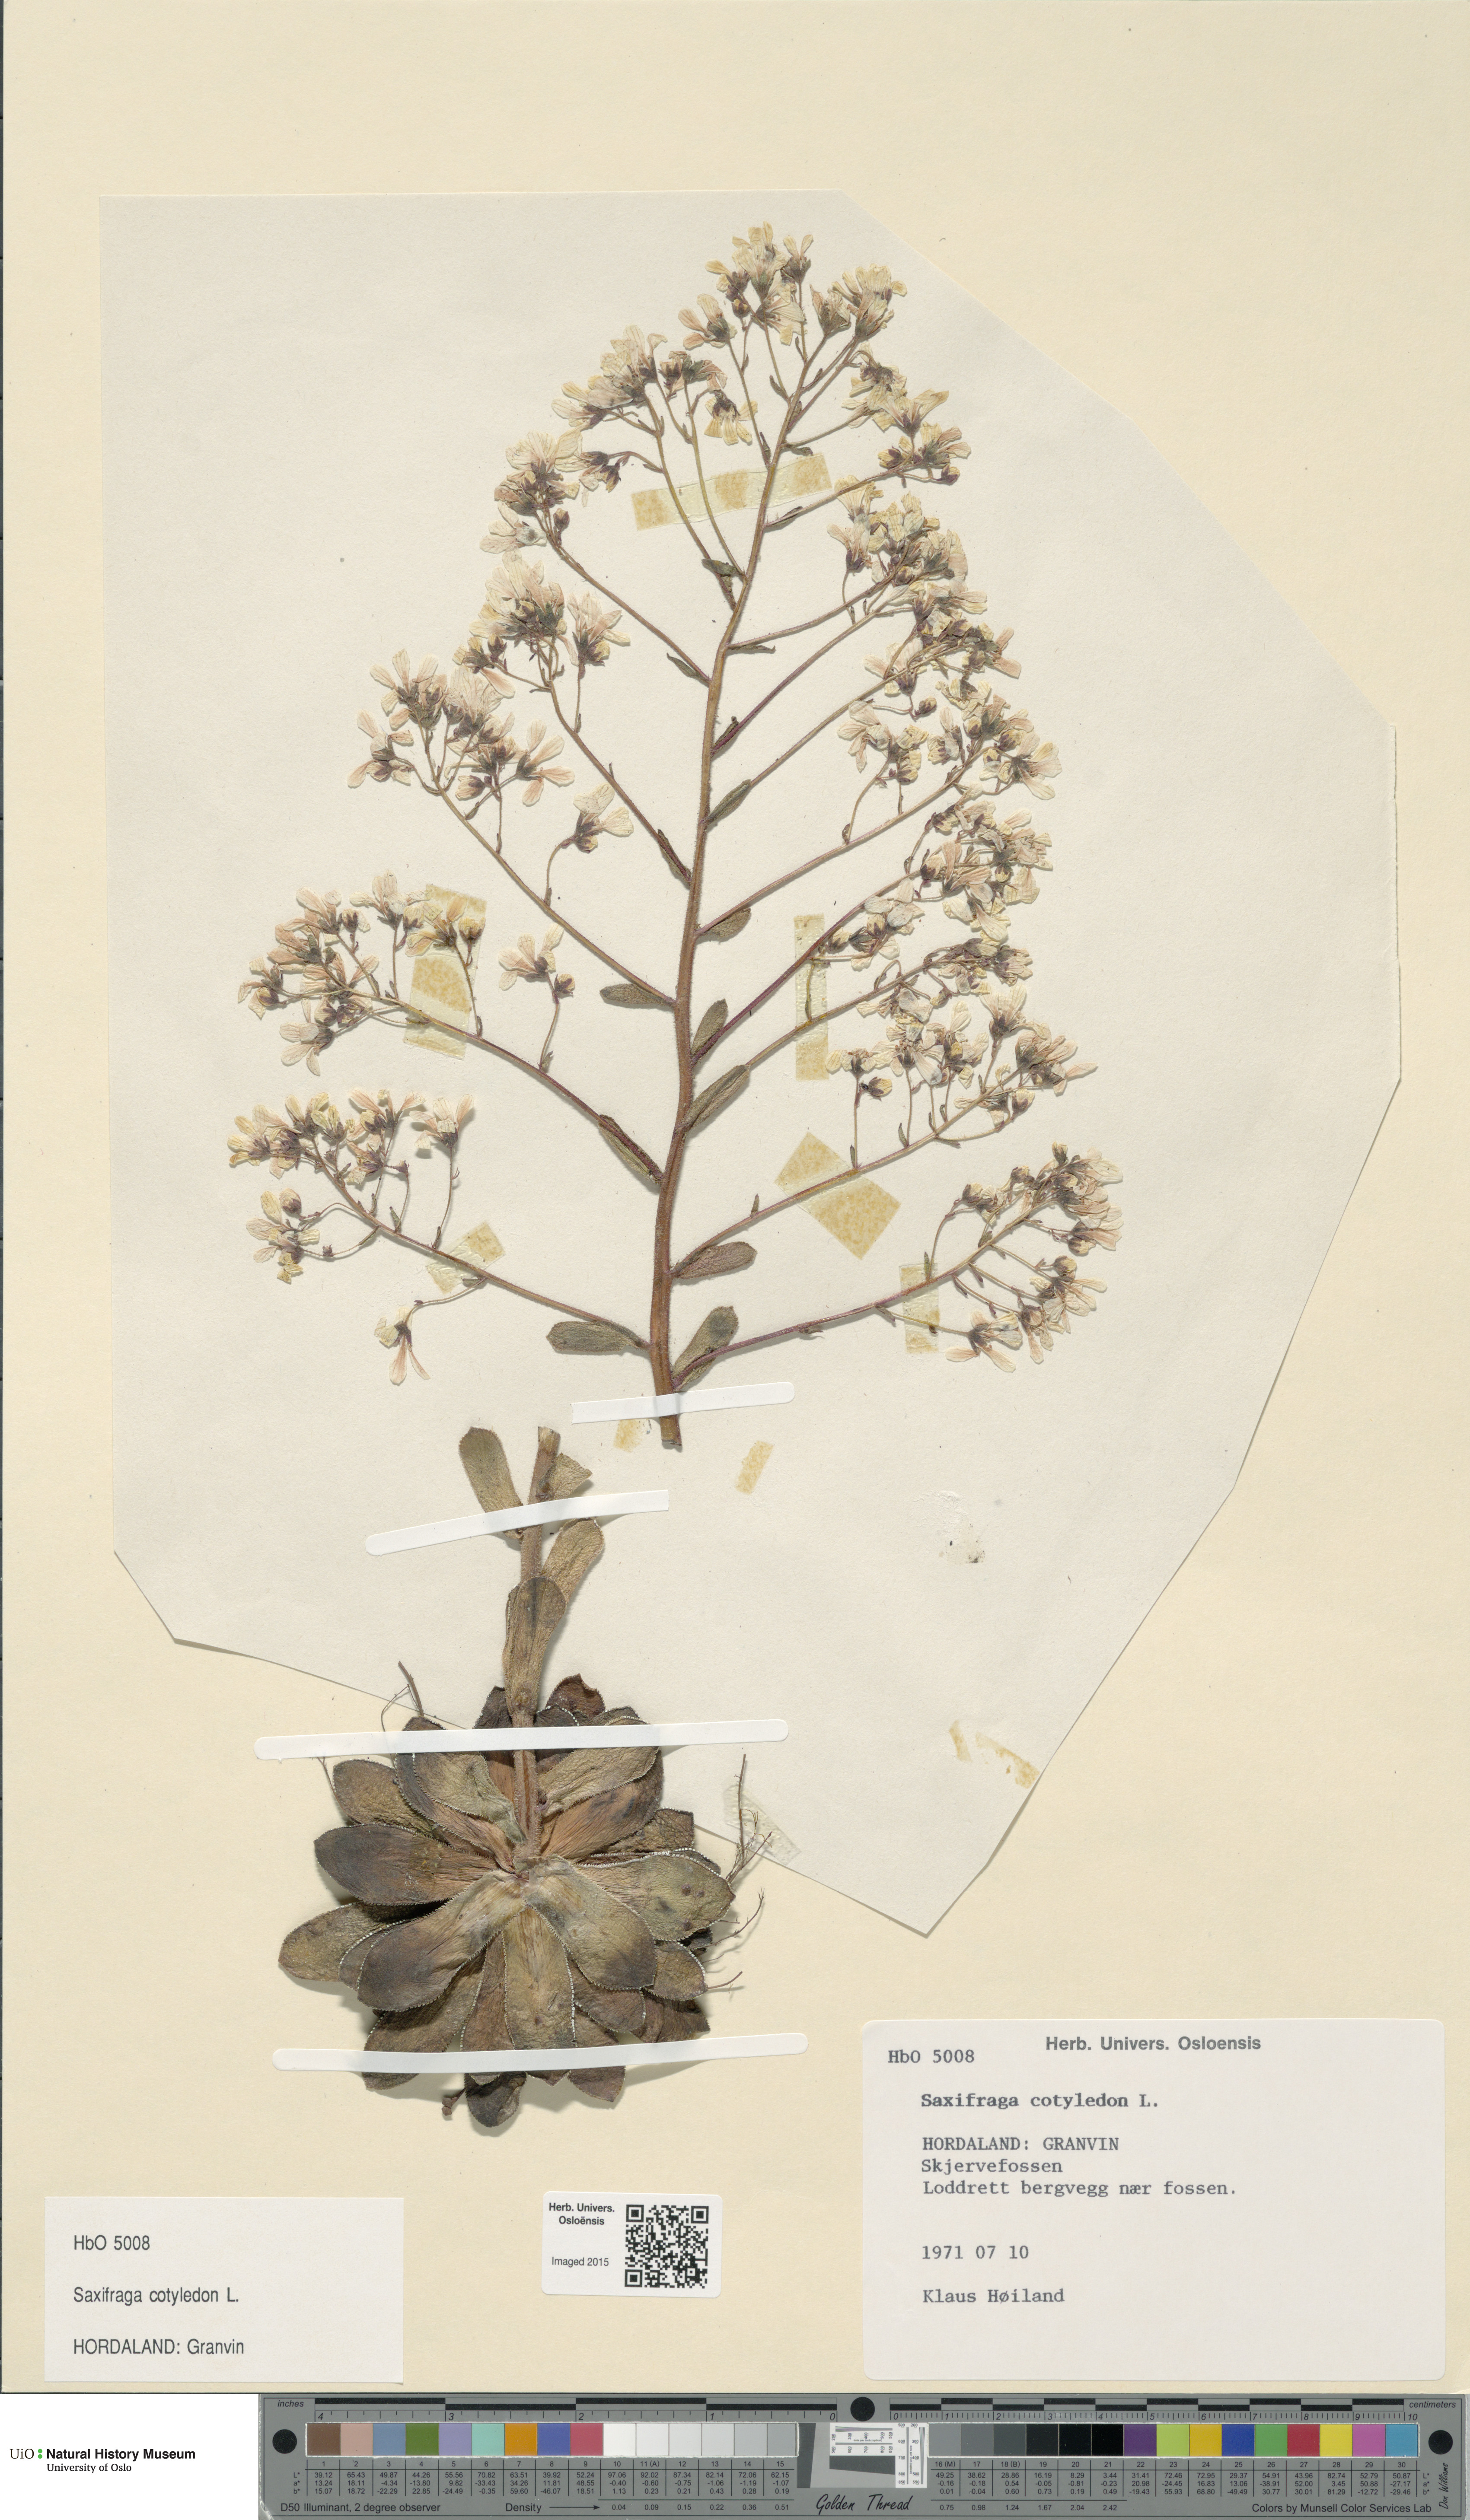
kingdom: Plantae
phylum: Tracheophyta
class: Magnoliopsida
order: Saxifragales
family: Saxifragaceae
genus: Saxifraga
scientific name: Saxifraga cotyledon
